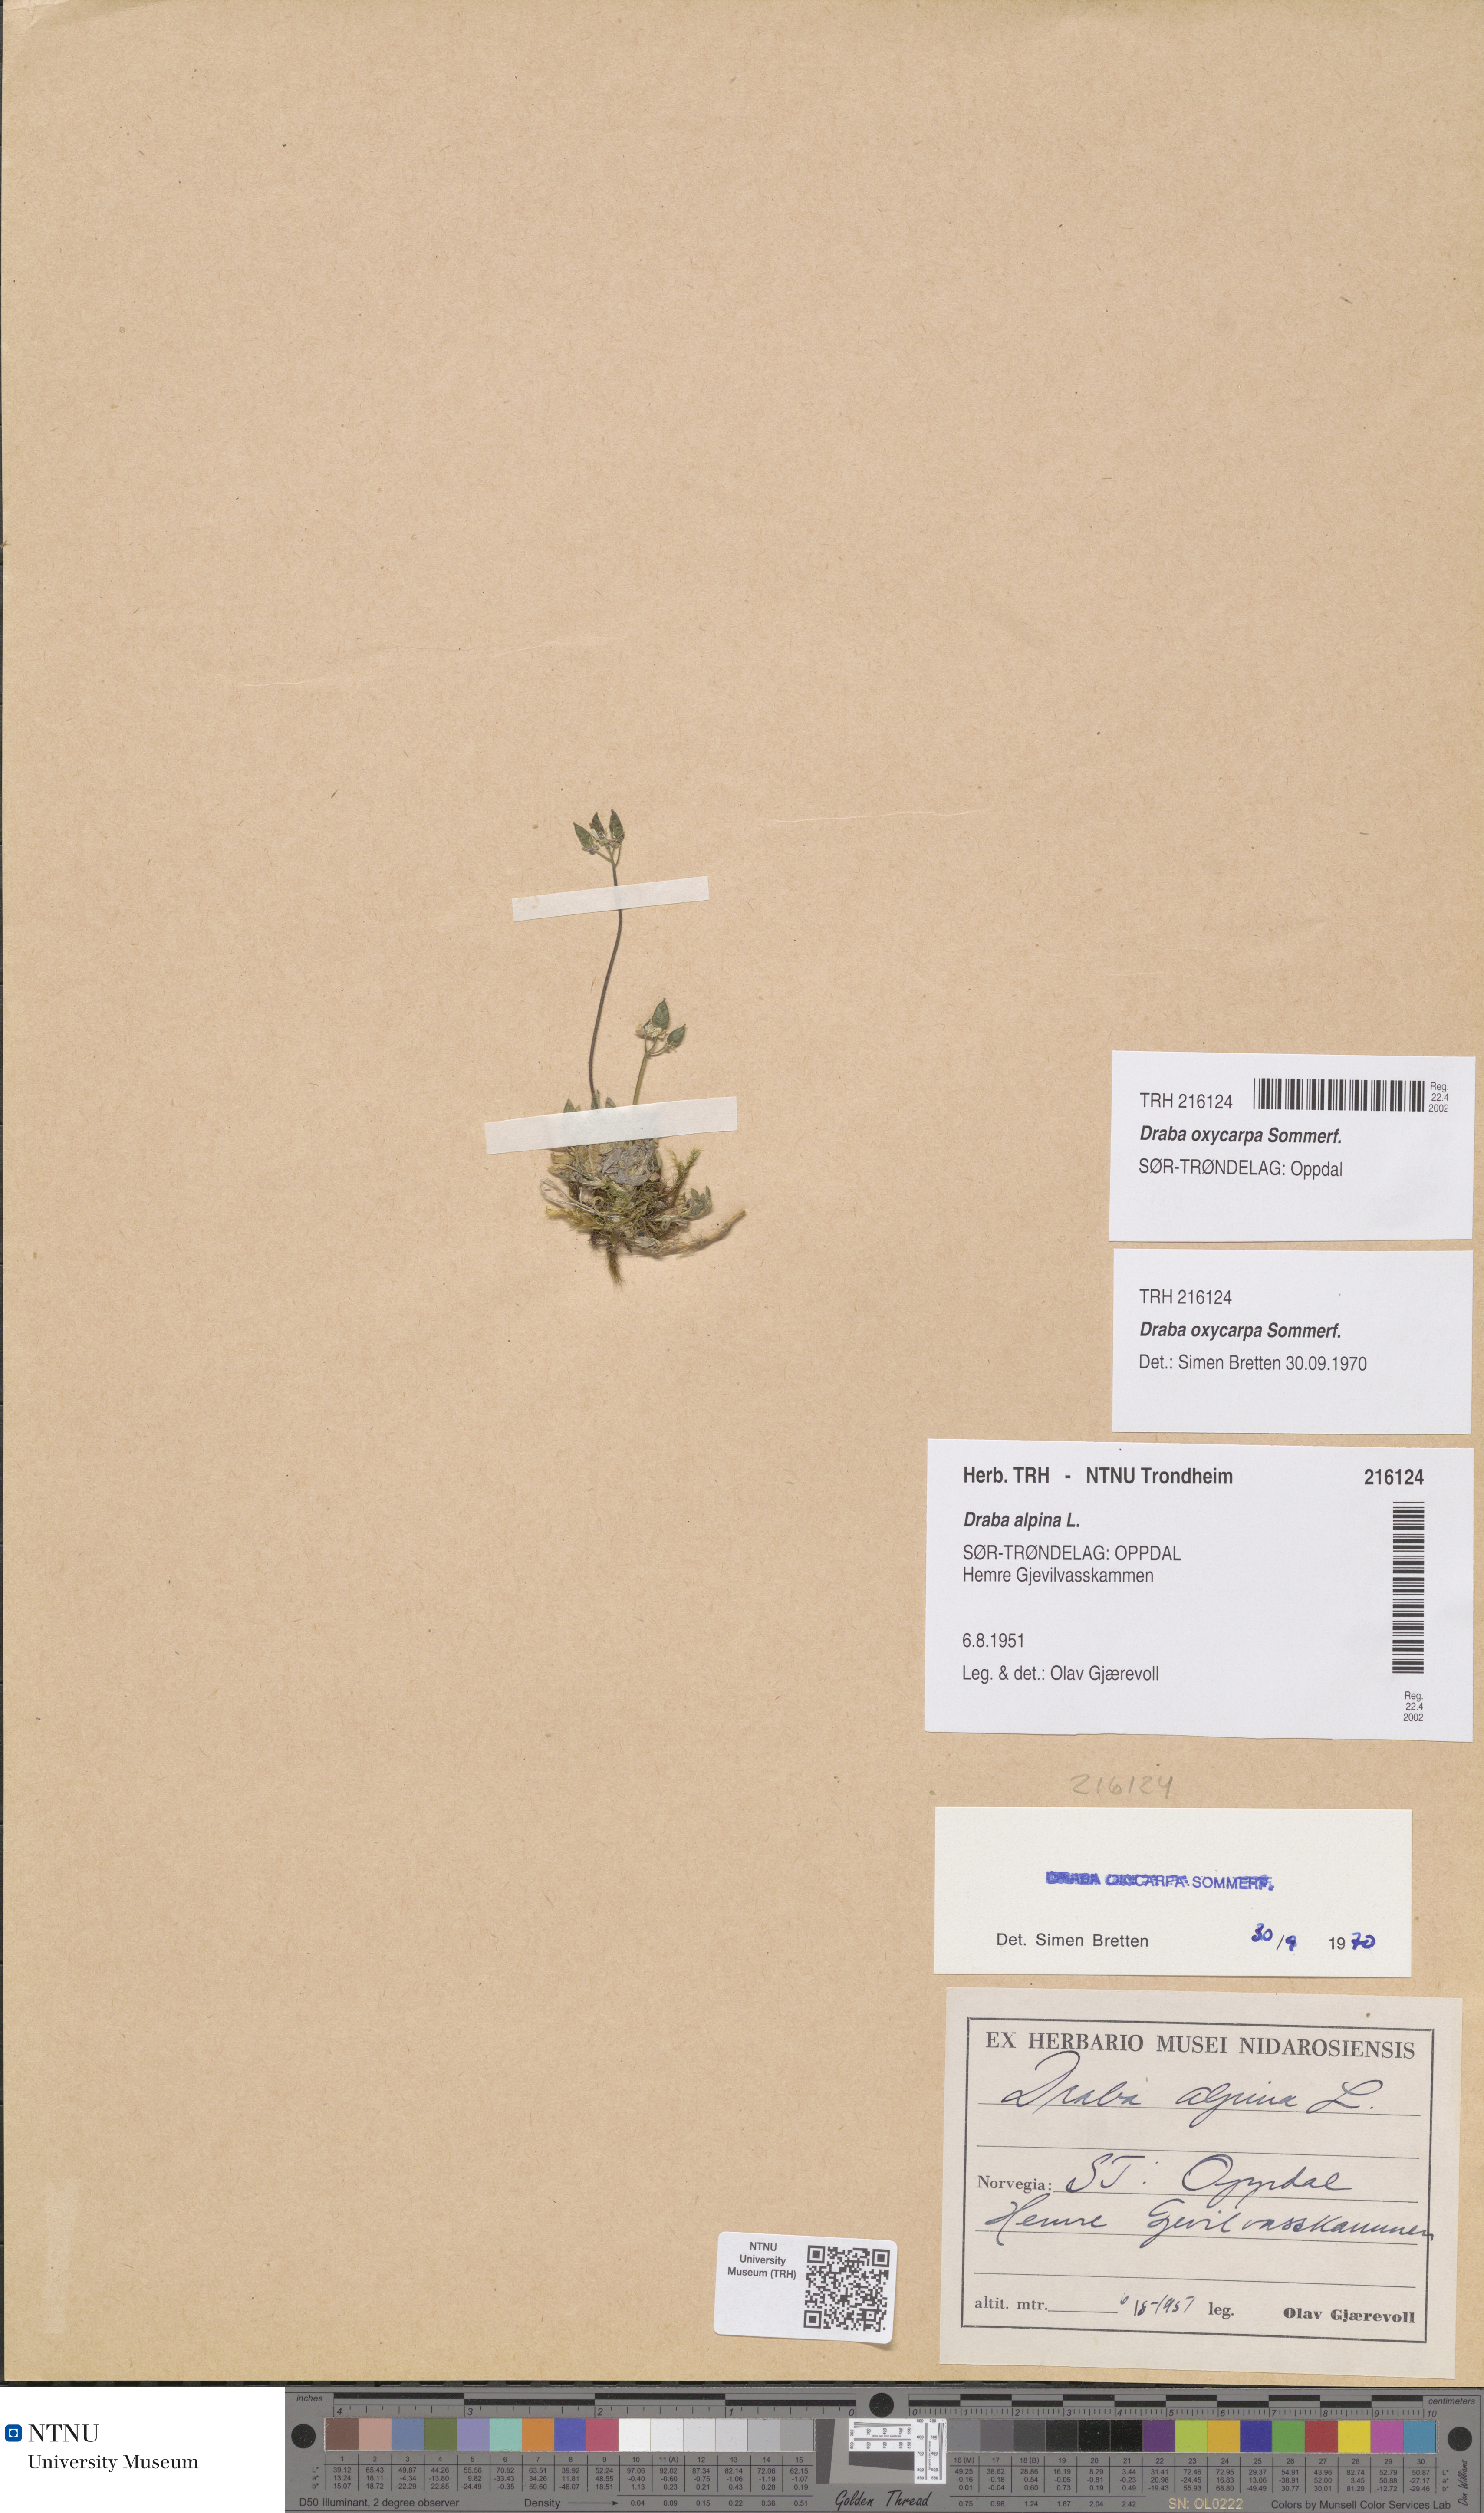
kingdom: Plantae
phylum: Tracheophyta
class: Magnoliopsida
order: Brassicales
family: Brassicaceae
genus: Draba
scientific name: Draba oxycarpa
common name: Sharp-fruited whitlow-grass
